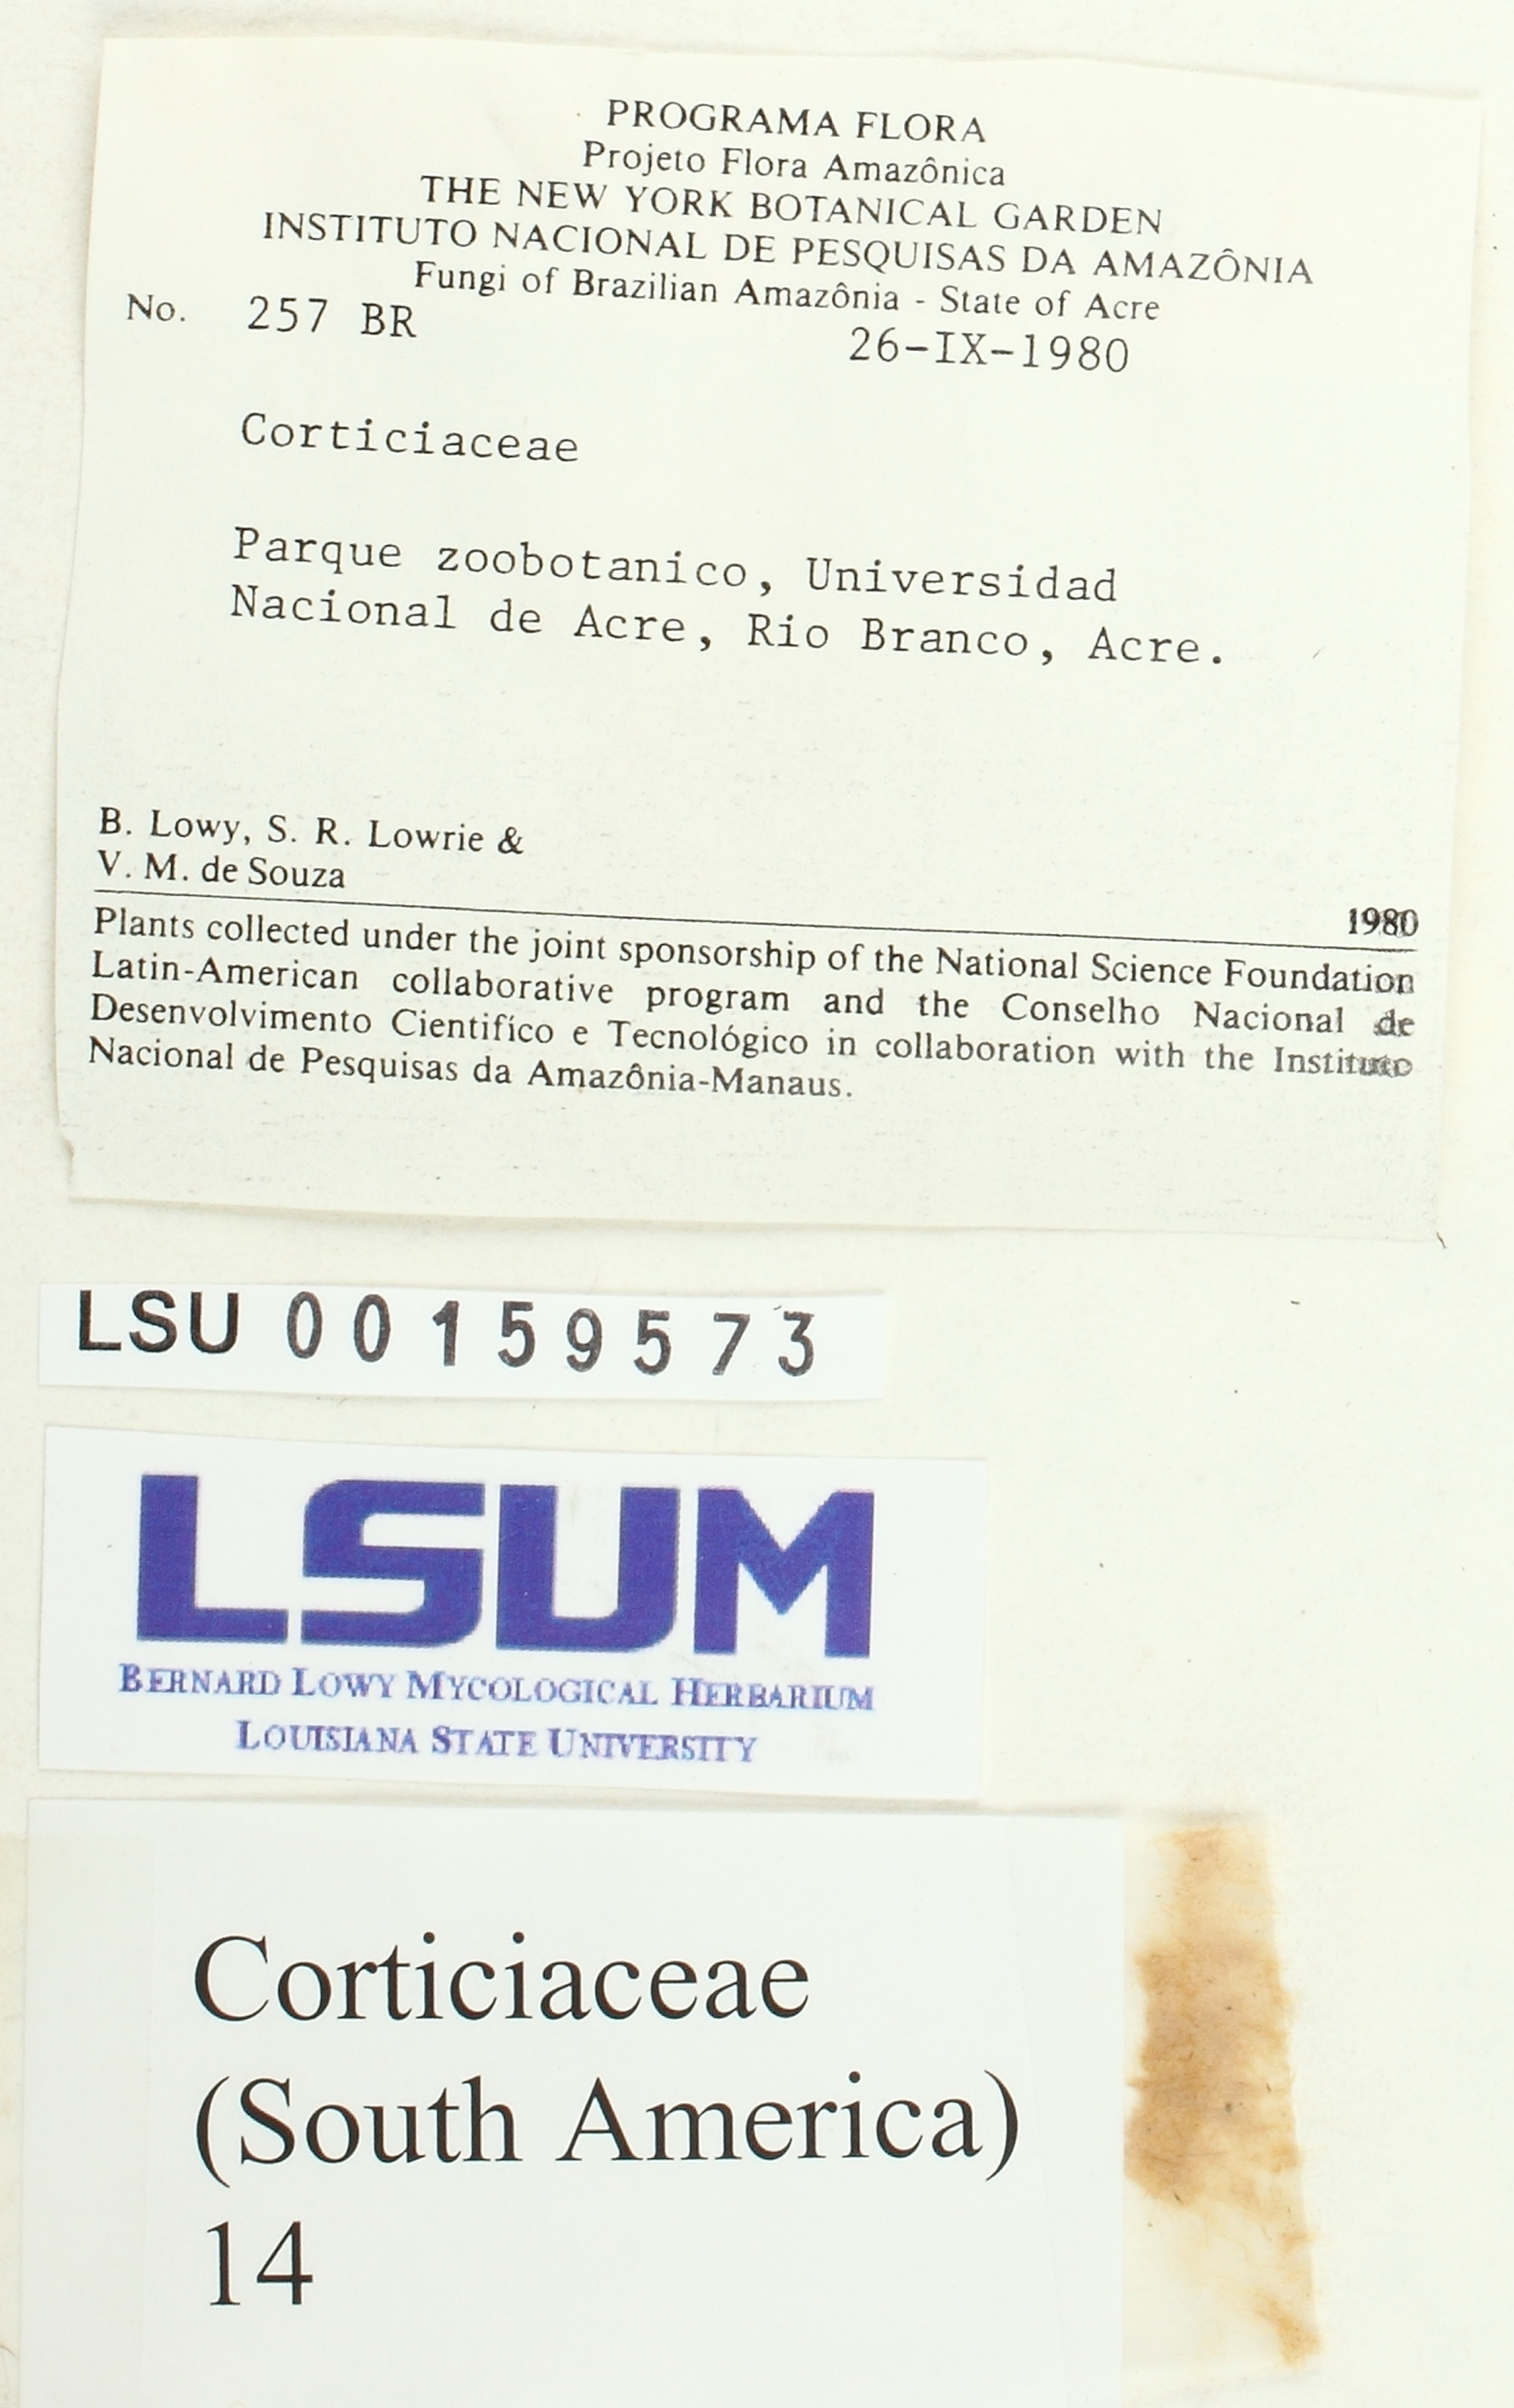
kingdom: Fungi
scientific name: Fungi
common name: Fungi
